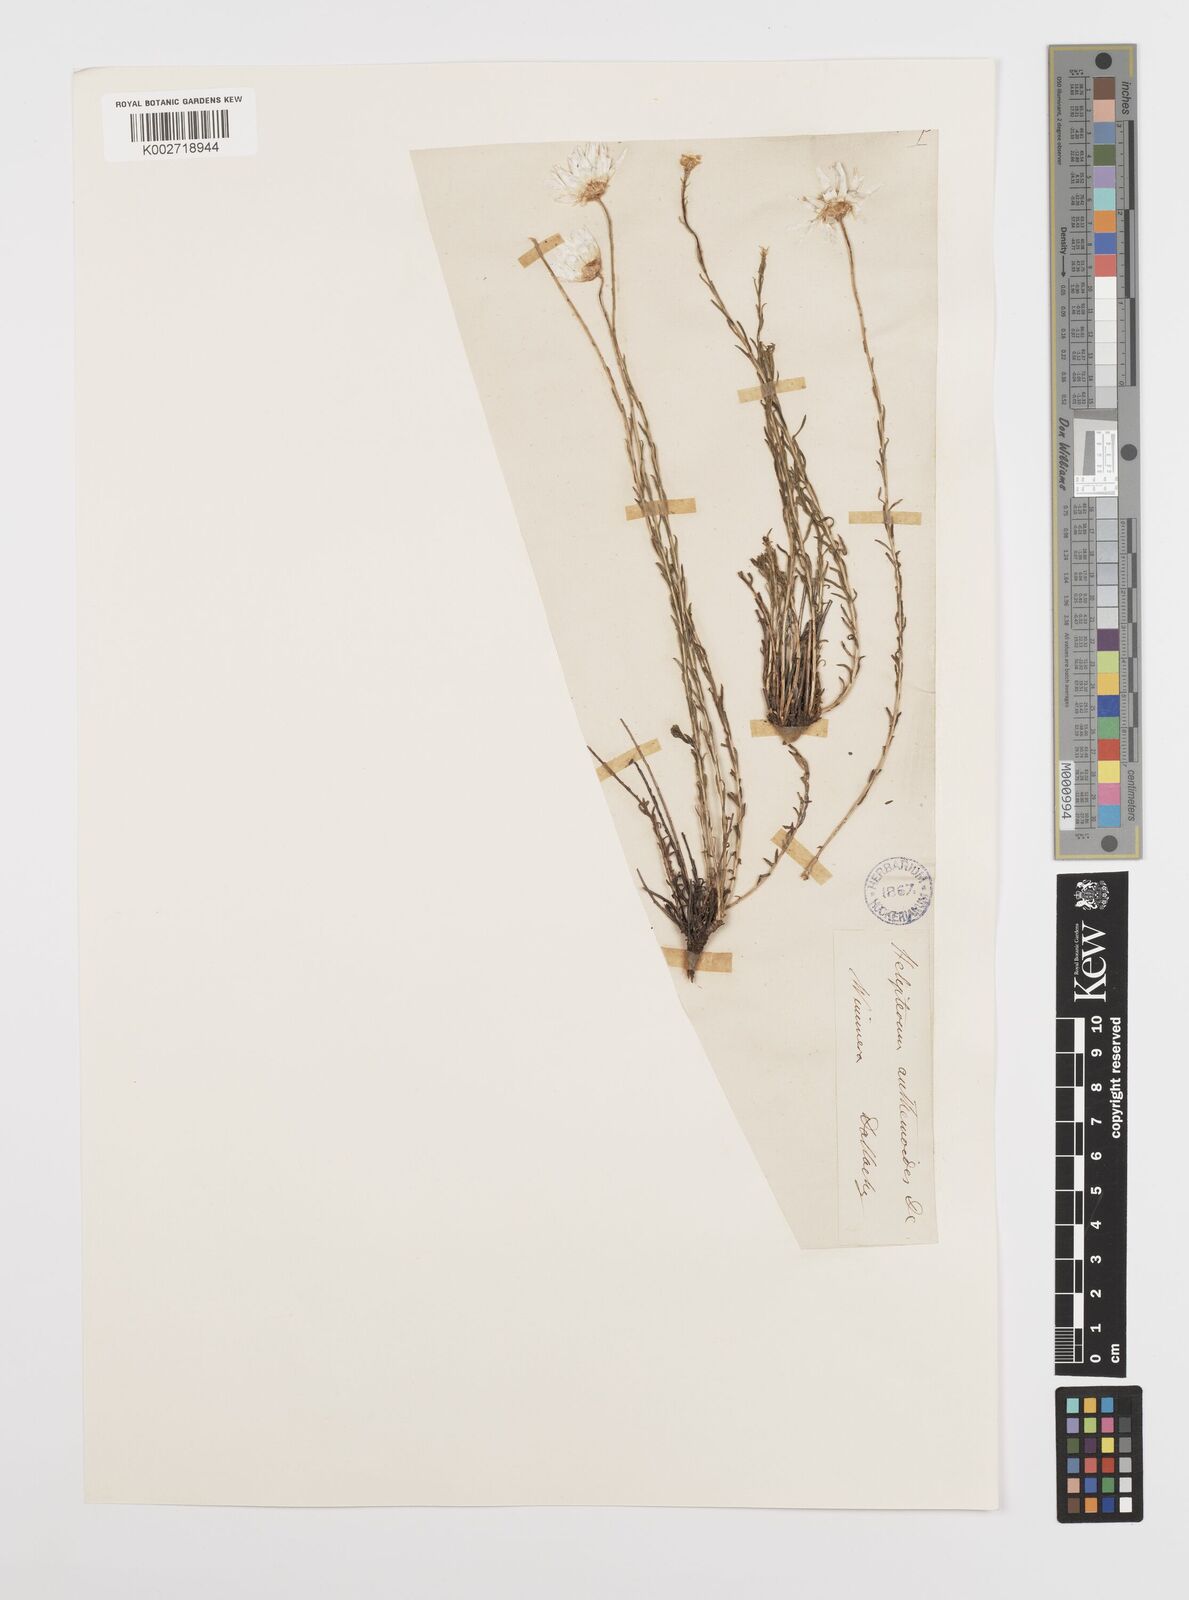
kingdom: Plantae
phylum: Tracheophyta
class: Magnoliopsida
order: Asterales
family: Asteraceae
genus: Rhodanthe
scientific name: Rhodanthe anthemoides
